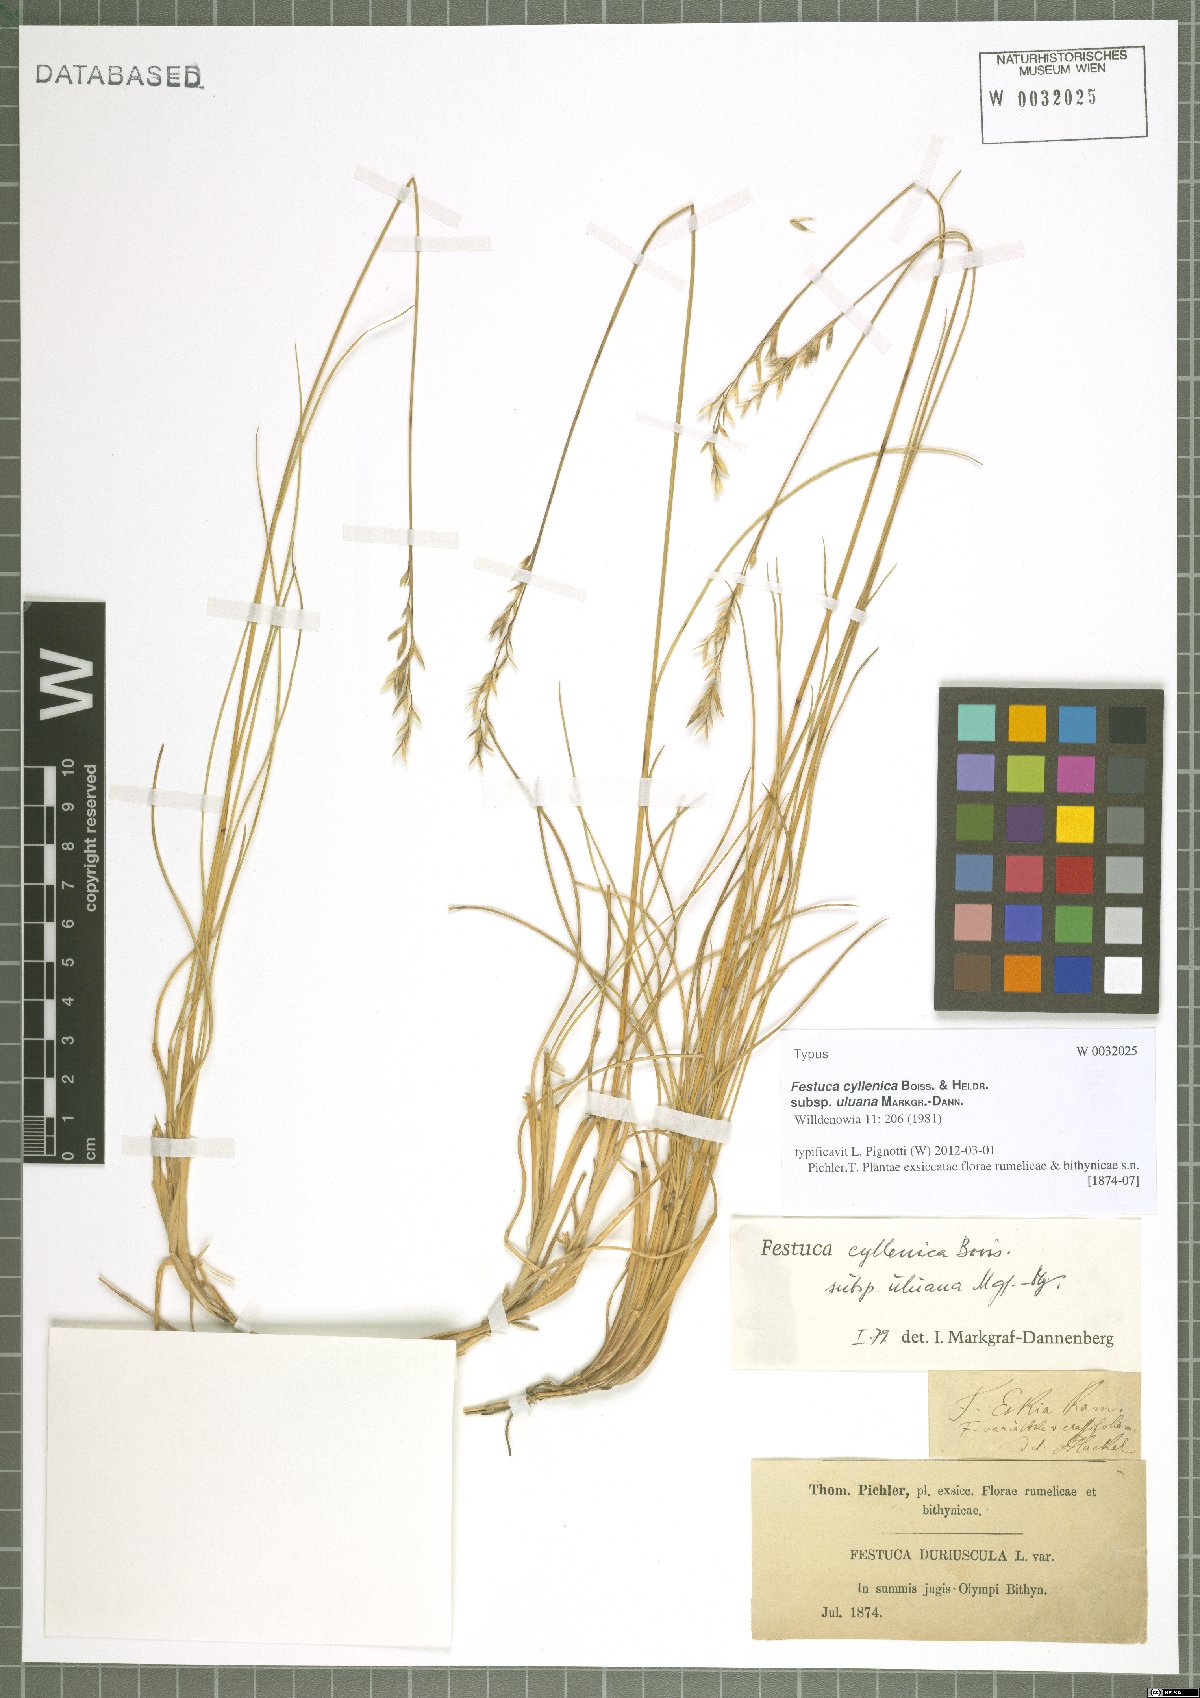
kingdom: Plantae
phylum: Tracheophyta
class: Liliopsida
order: Poales
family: Poaceae
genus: Festuca
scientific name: Festuca cyllenica
